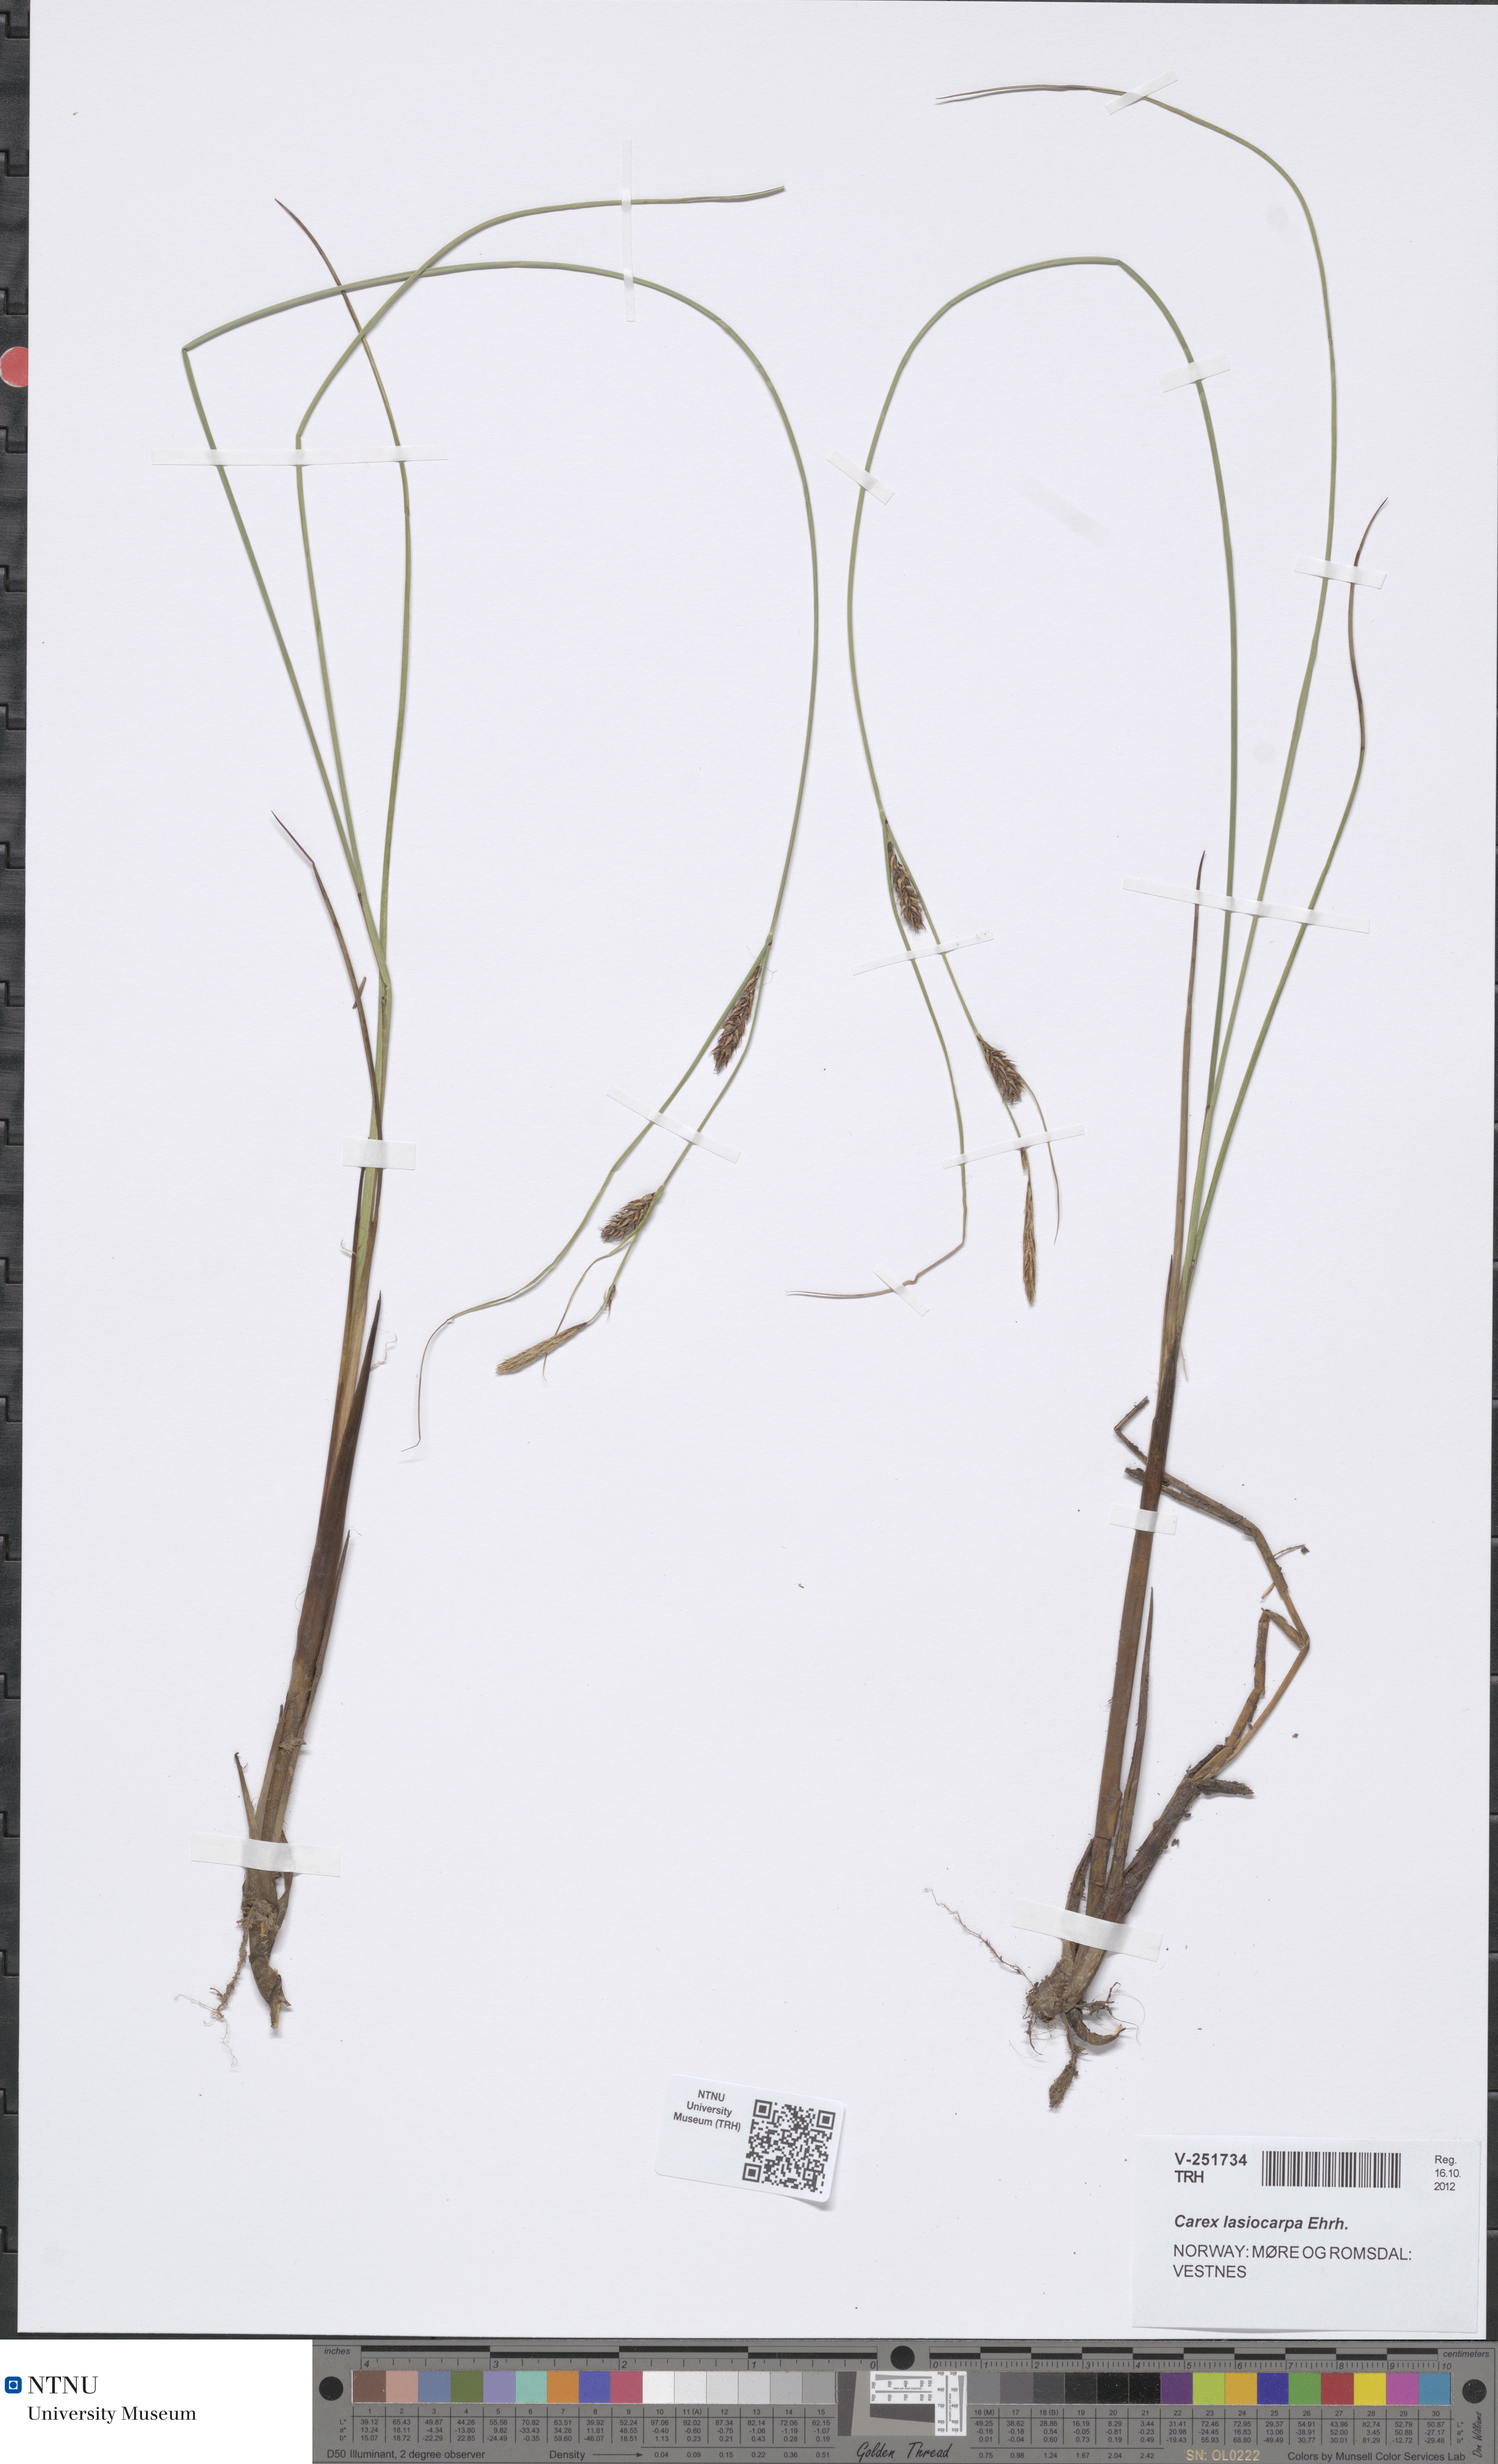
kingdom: Plantae
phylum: Tracheophyta
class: Liliopsida
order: Poales
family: Cyperaceae
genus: Carex
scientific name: Carex lasiocarpa
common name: Slender sedge
